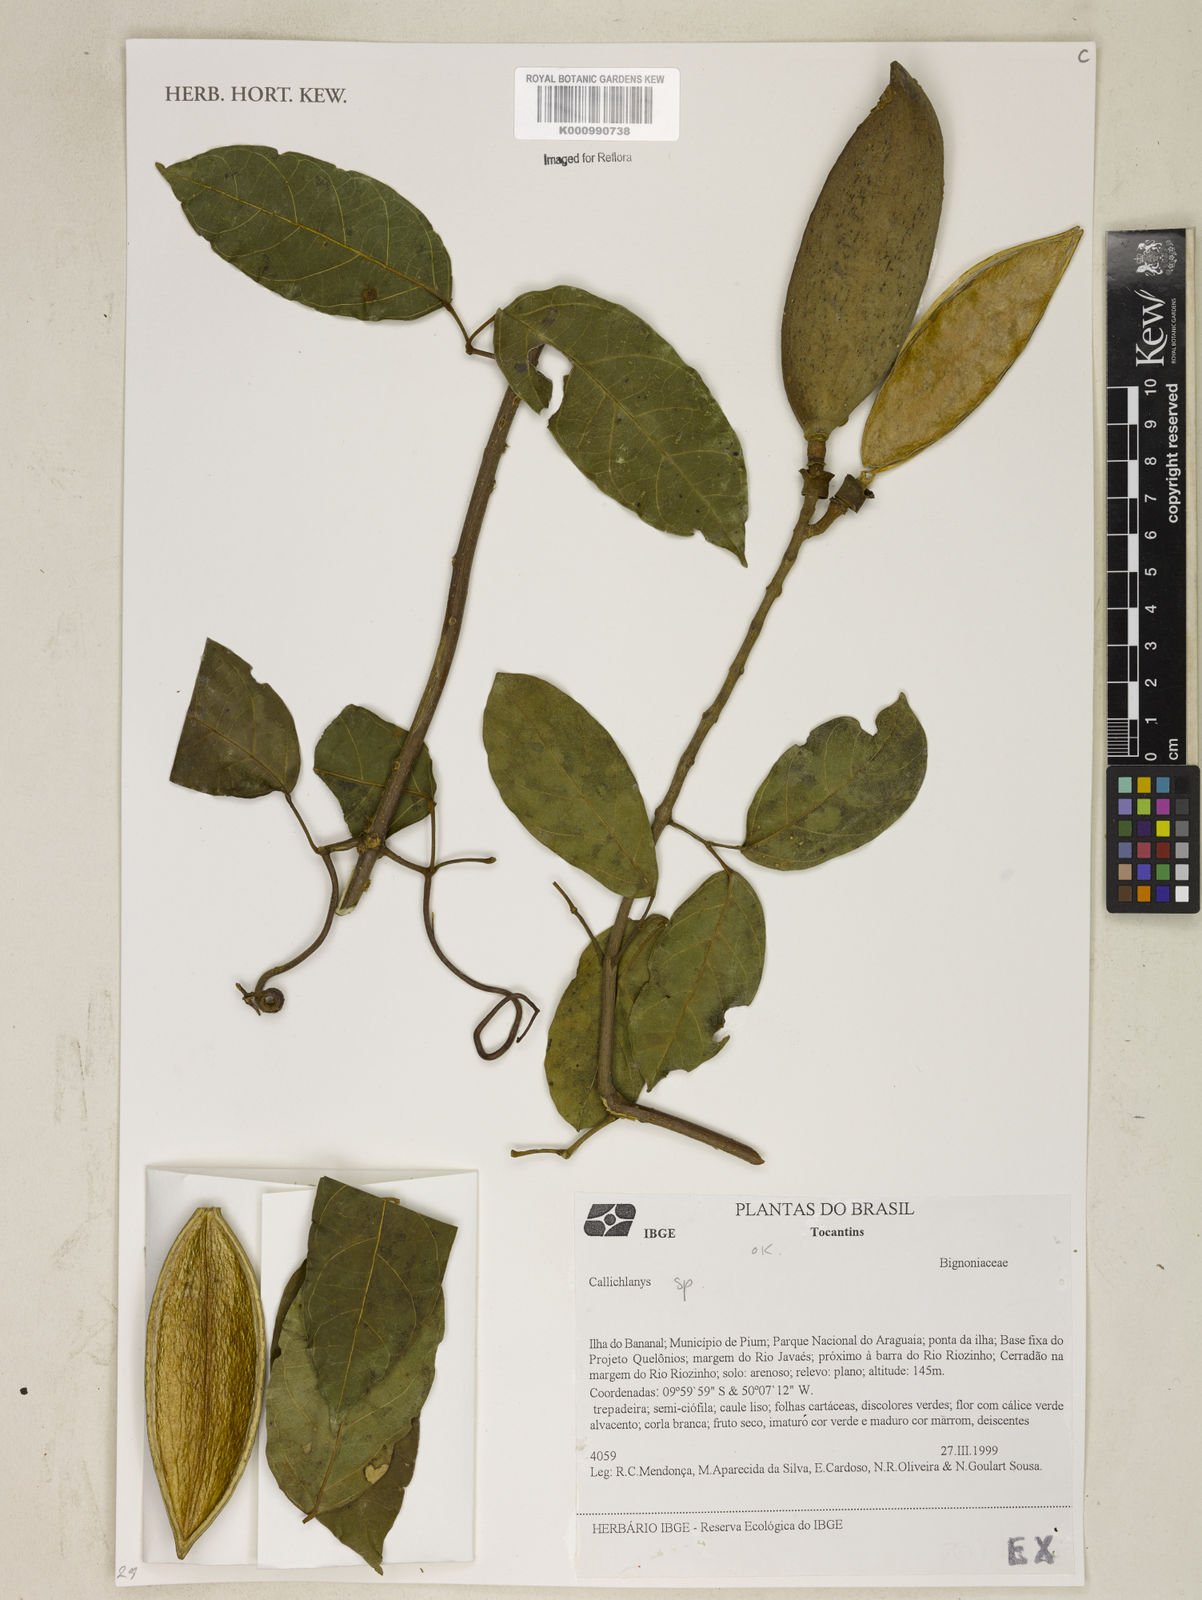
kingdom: Plantae
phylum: Tracheophyta
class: Magnoliopsida
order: Lamiales
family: Bignoniaceae
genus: Callichlamys
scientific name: Callichlamys
